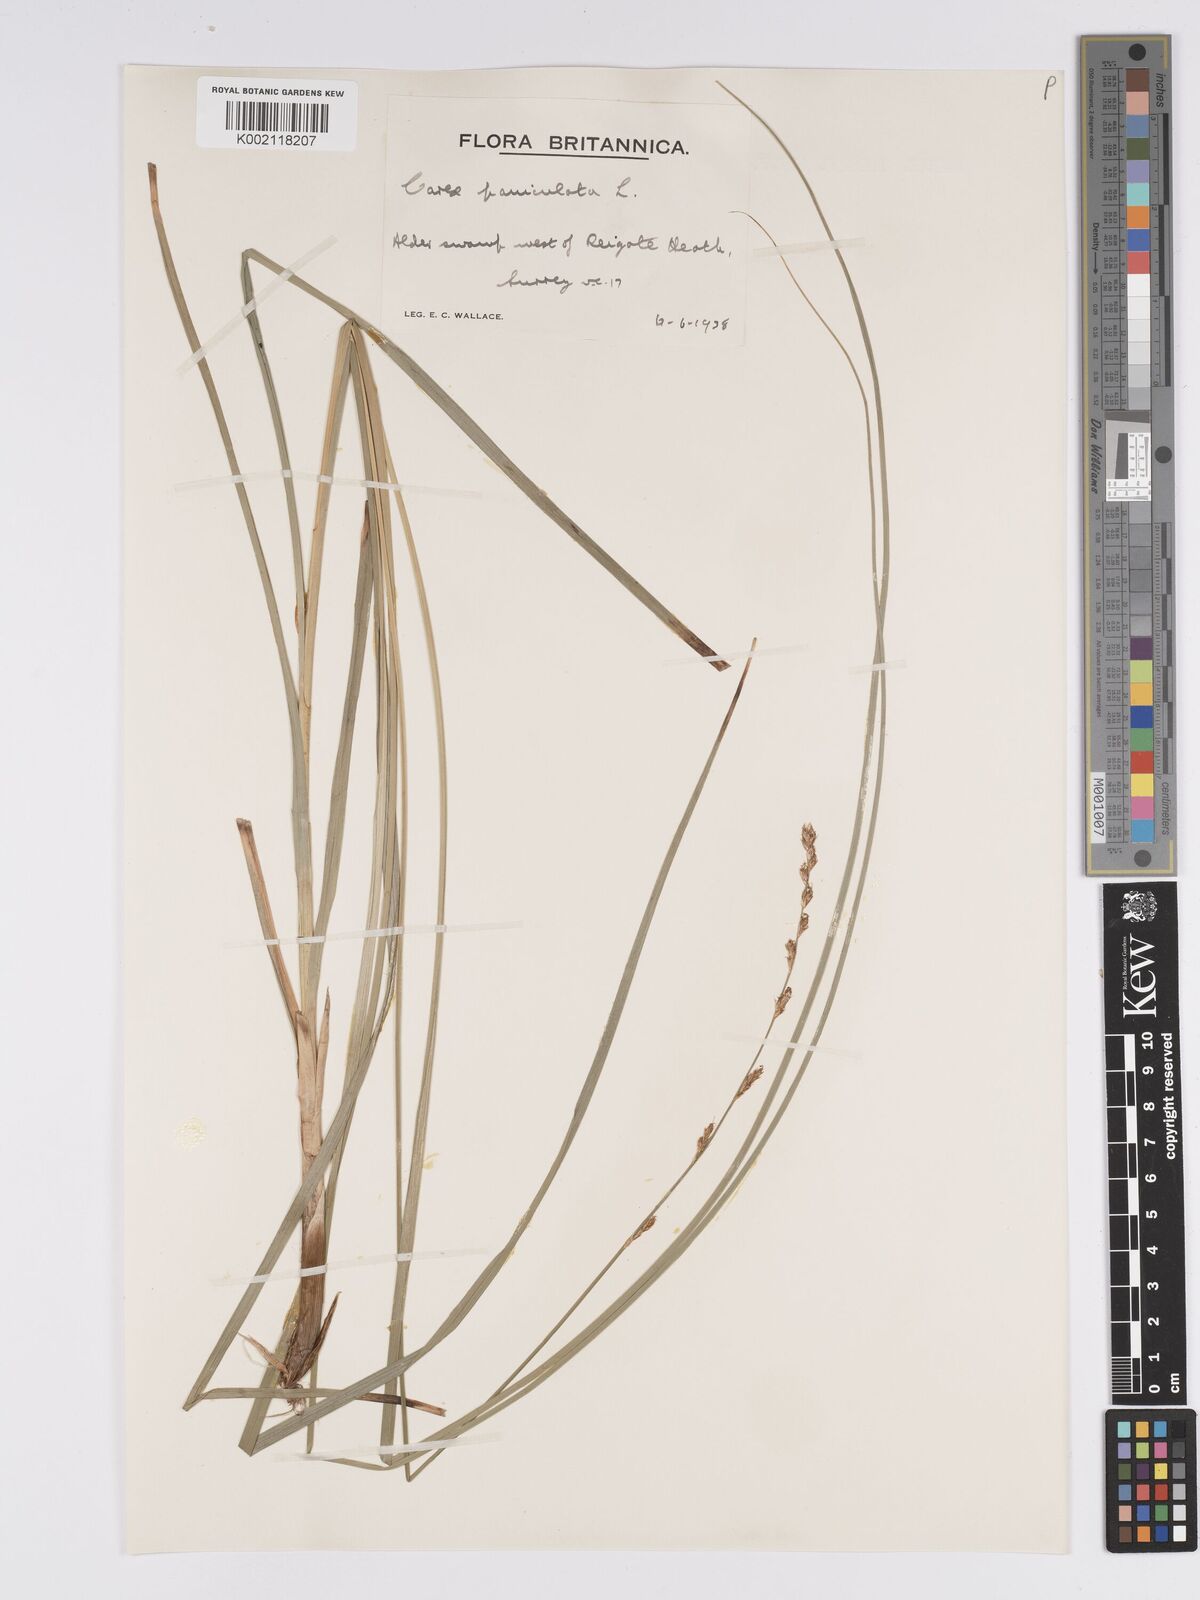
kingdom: Plantae
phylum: Tracheophyta
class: Liliopsida
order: Poales
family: Cyperaceae
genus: Carex
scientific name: Carex paniculata
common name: Greater tussock-sedge
